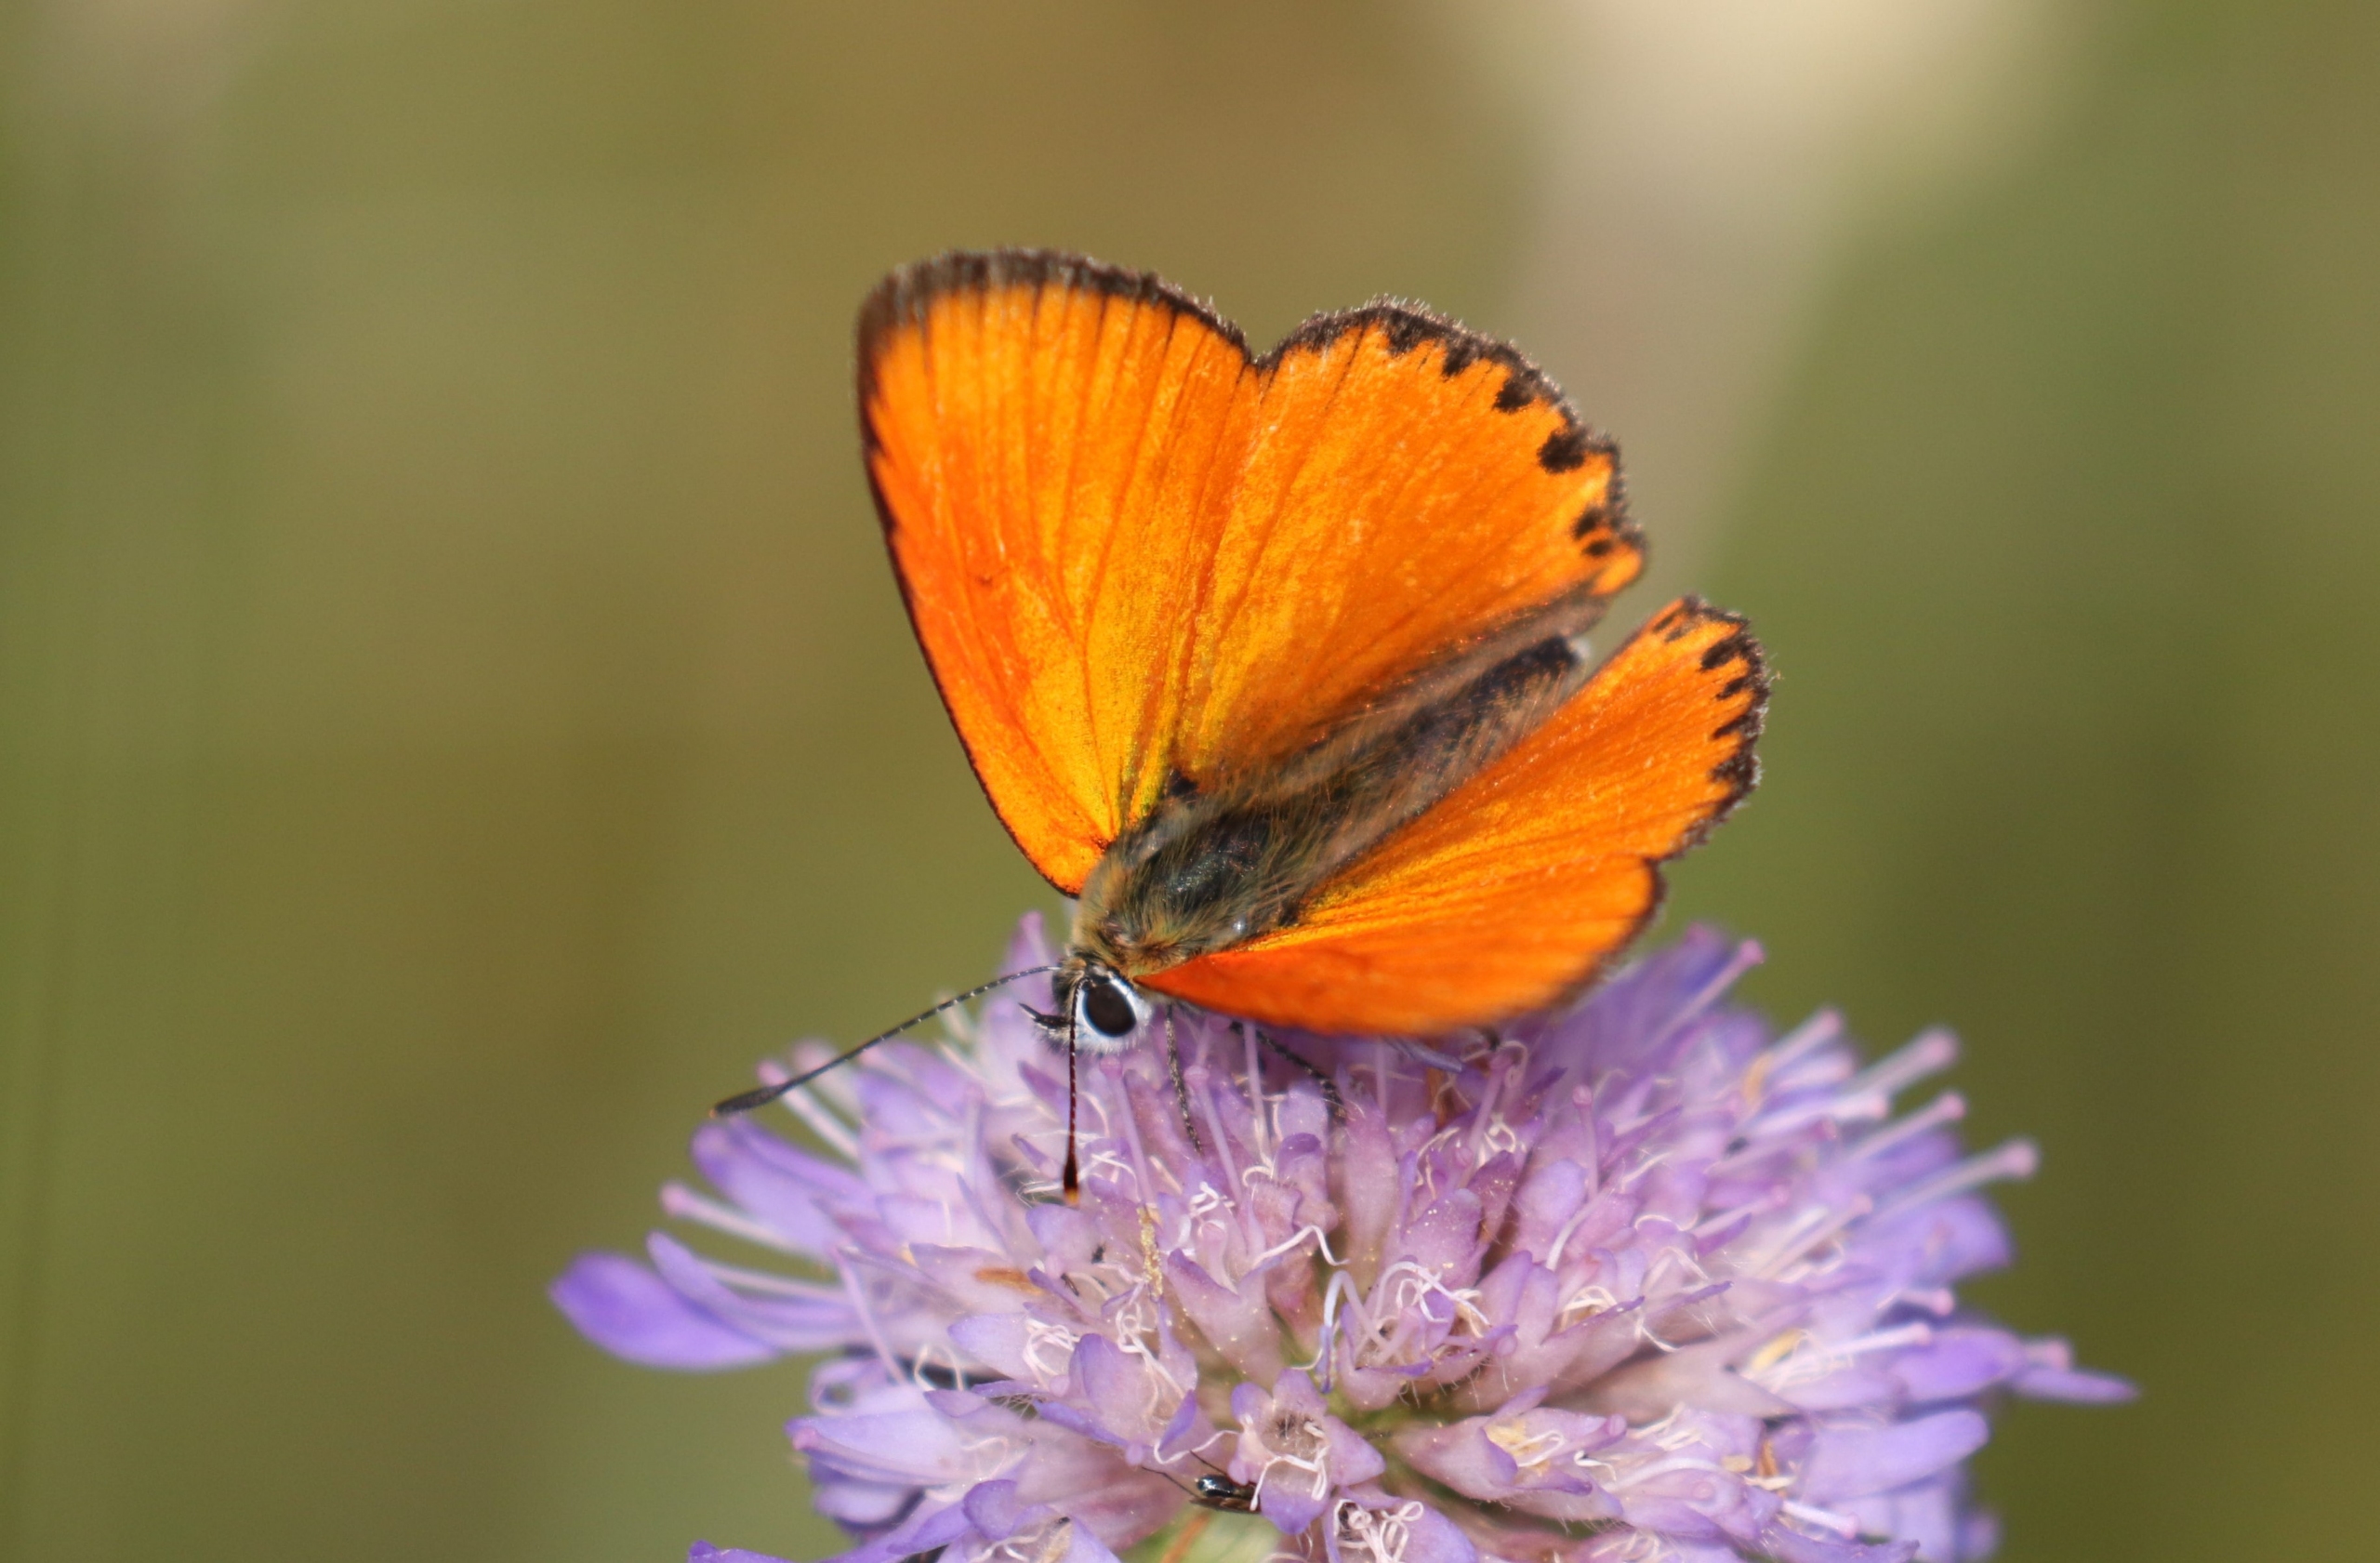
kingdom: Animalia
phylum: Arthropoda
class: Insecta
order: Lepidoptera
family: Lycaenidae
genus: Lycaena
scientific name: Lycaena virgaureae
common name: Dukatsommerfugl
